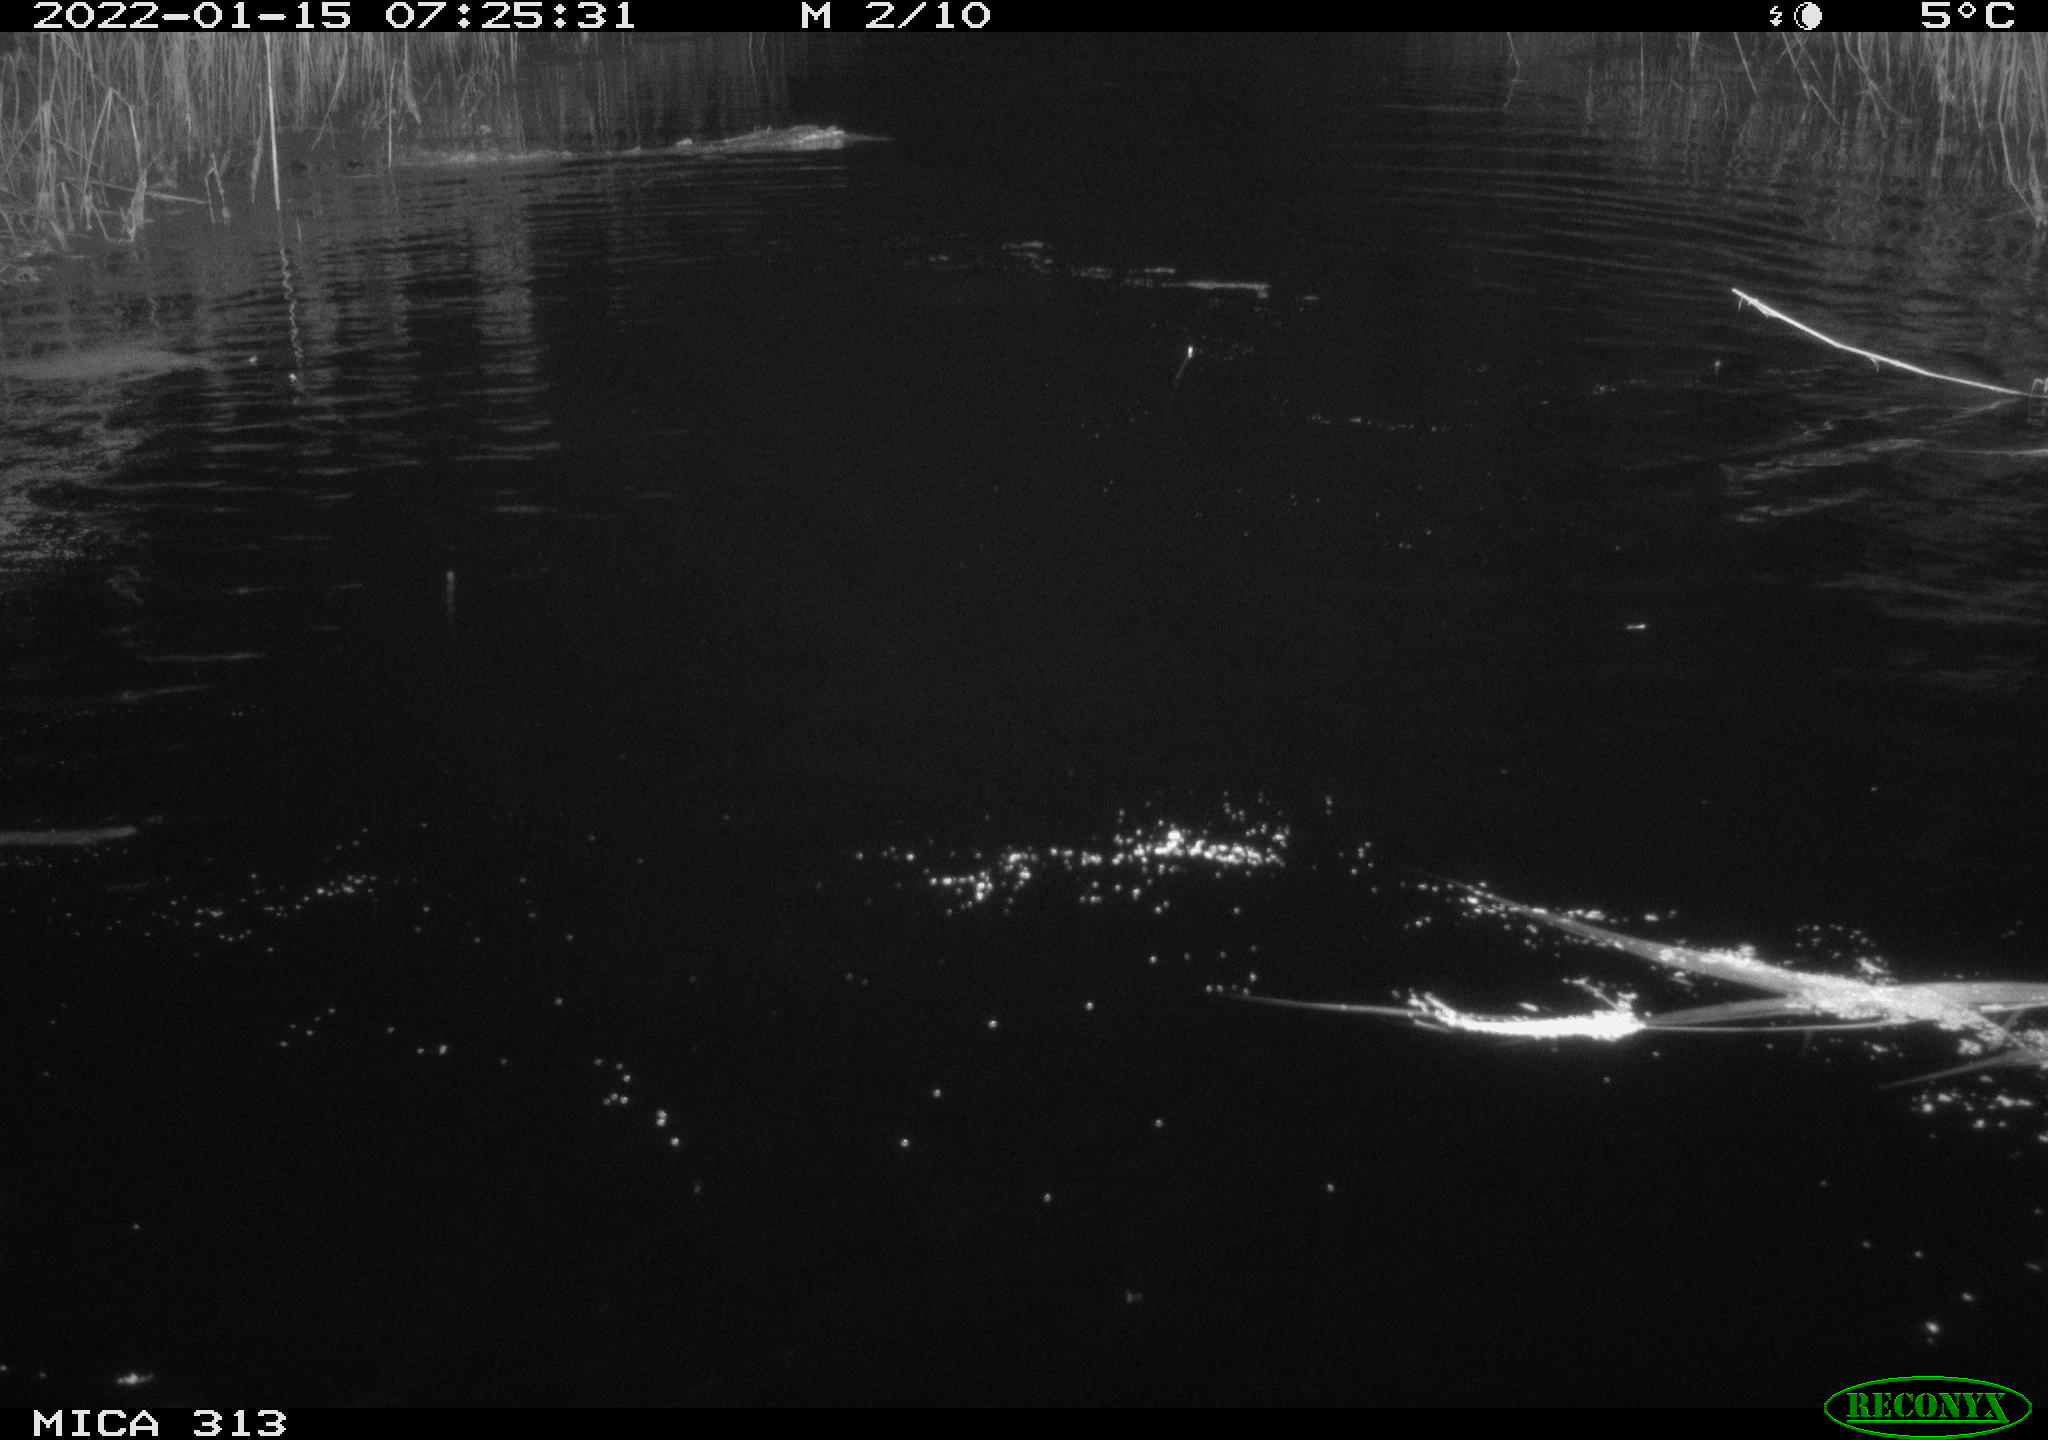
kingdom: Animalia
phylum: Chordata
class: Aves
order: Gruiformes
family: Rallidae
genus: Gallinula
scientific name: Gallinula chloropus
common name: Common moorhen
